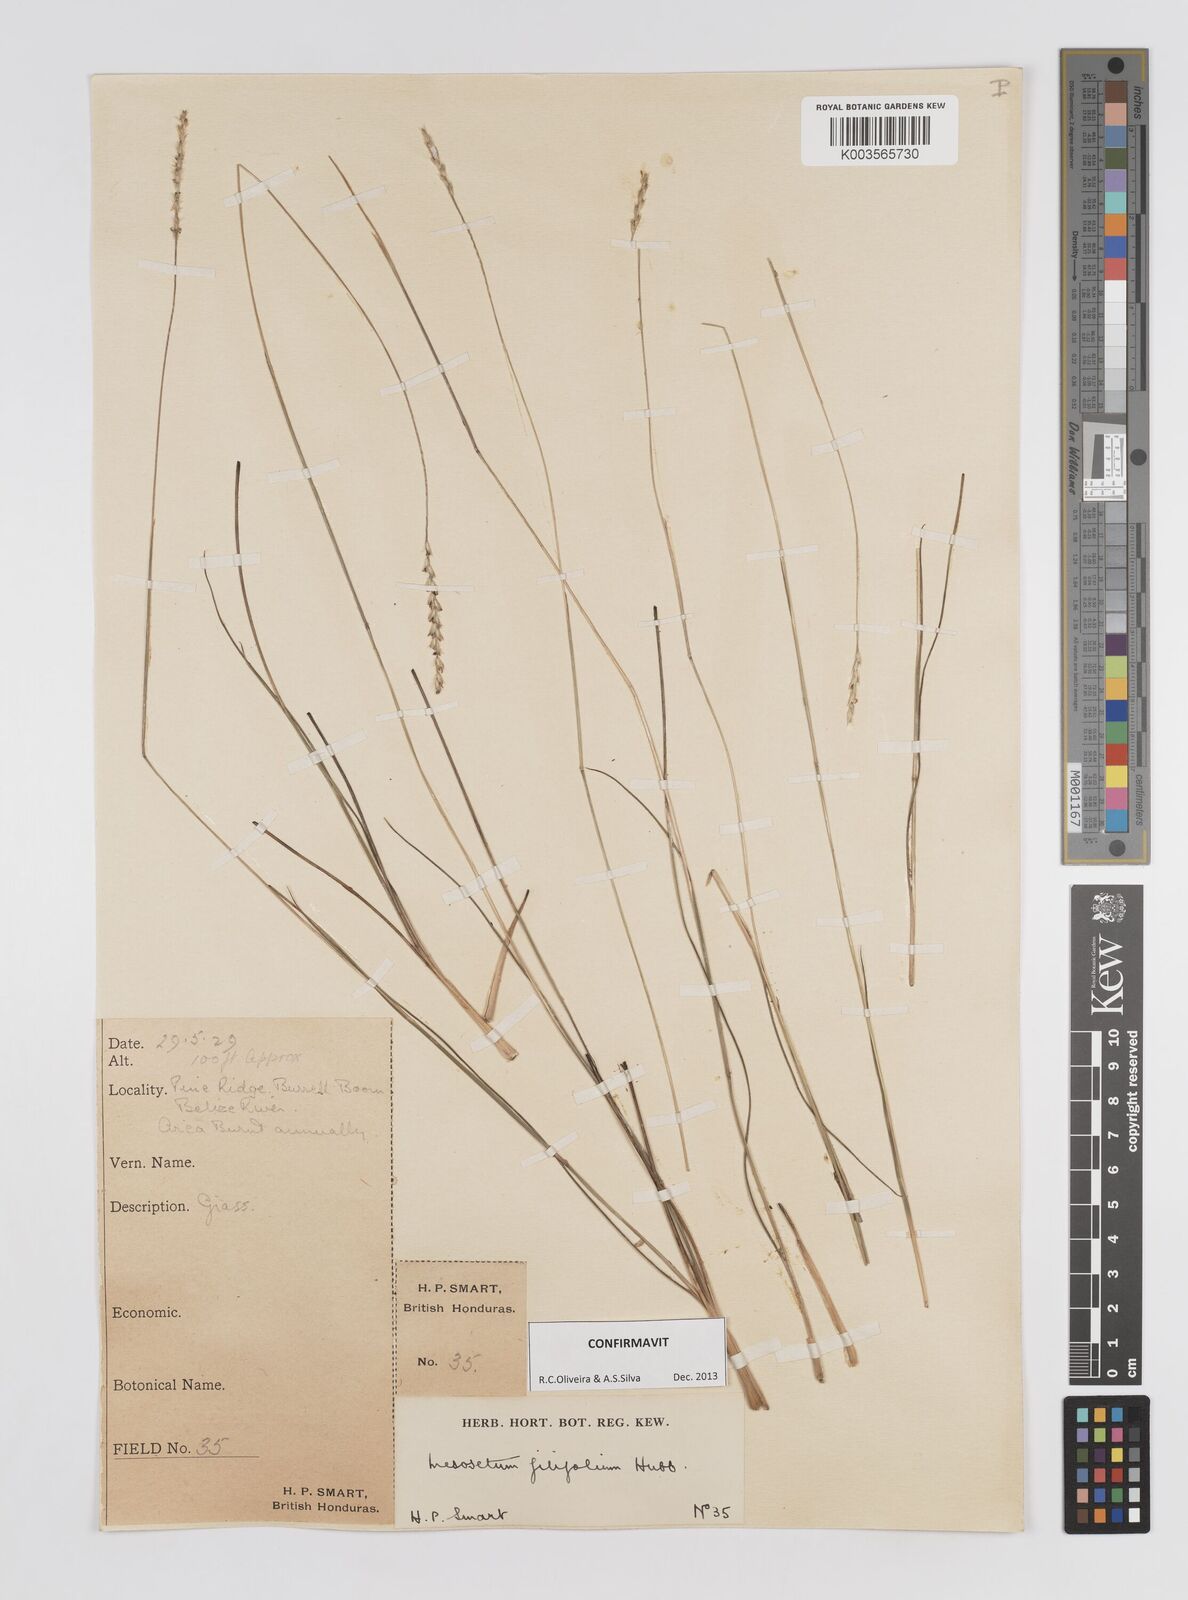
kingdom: Plantae
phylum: Tracheophyta
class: Liliopsida
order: Poales
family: Poaceae
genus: Mesosetum
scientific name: Mesosetum filifolium
